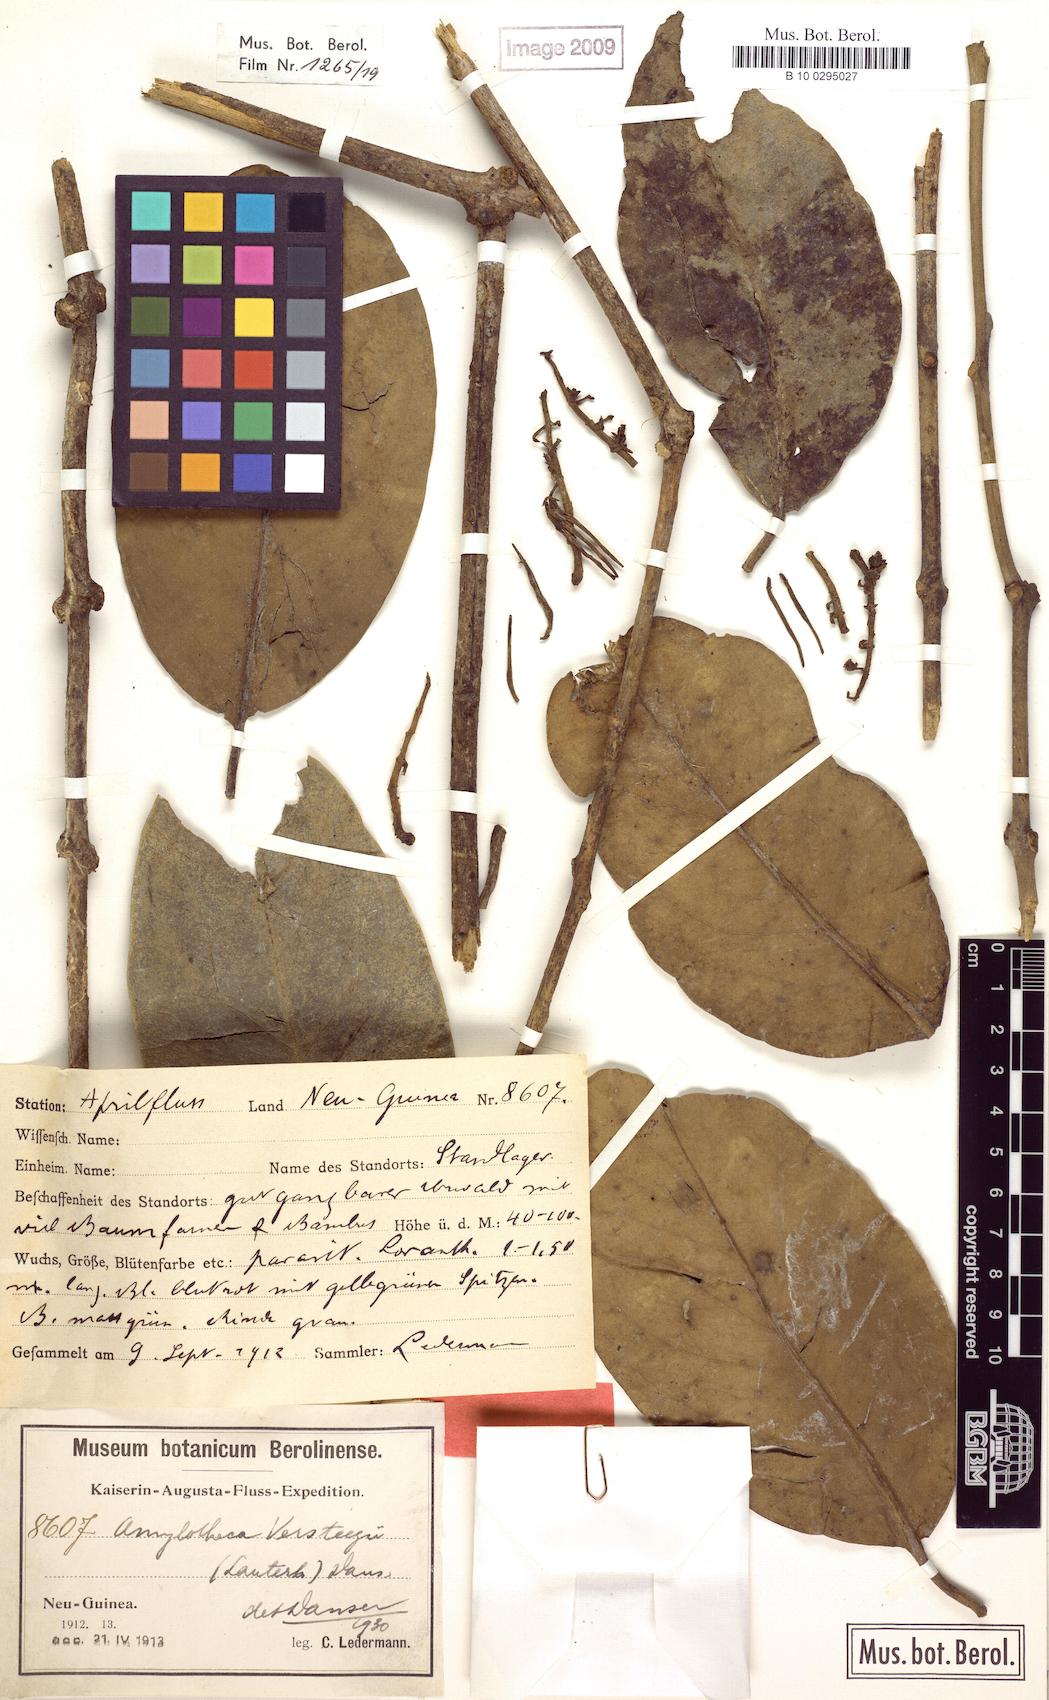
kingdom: Plantae
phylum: Tracheophyta
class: Magnoliopsida
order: Santalales
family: Loranthaceae
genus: Decaisnina
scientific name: Decaisnina hollrungii
